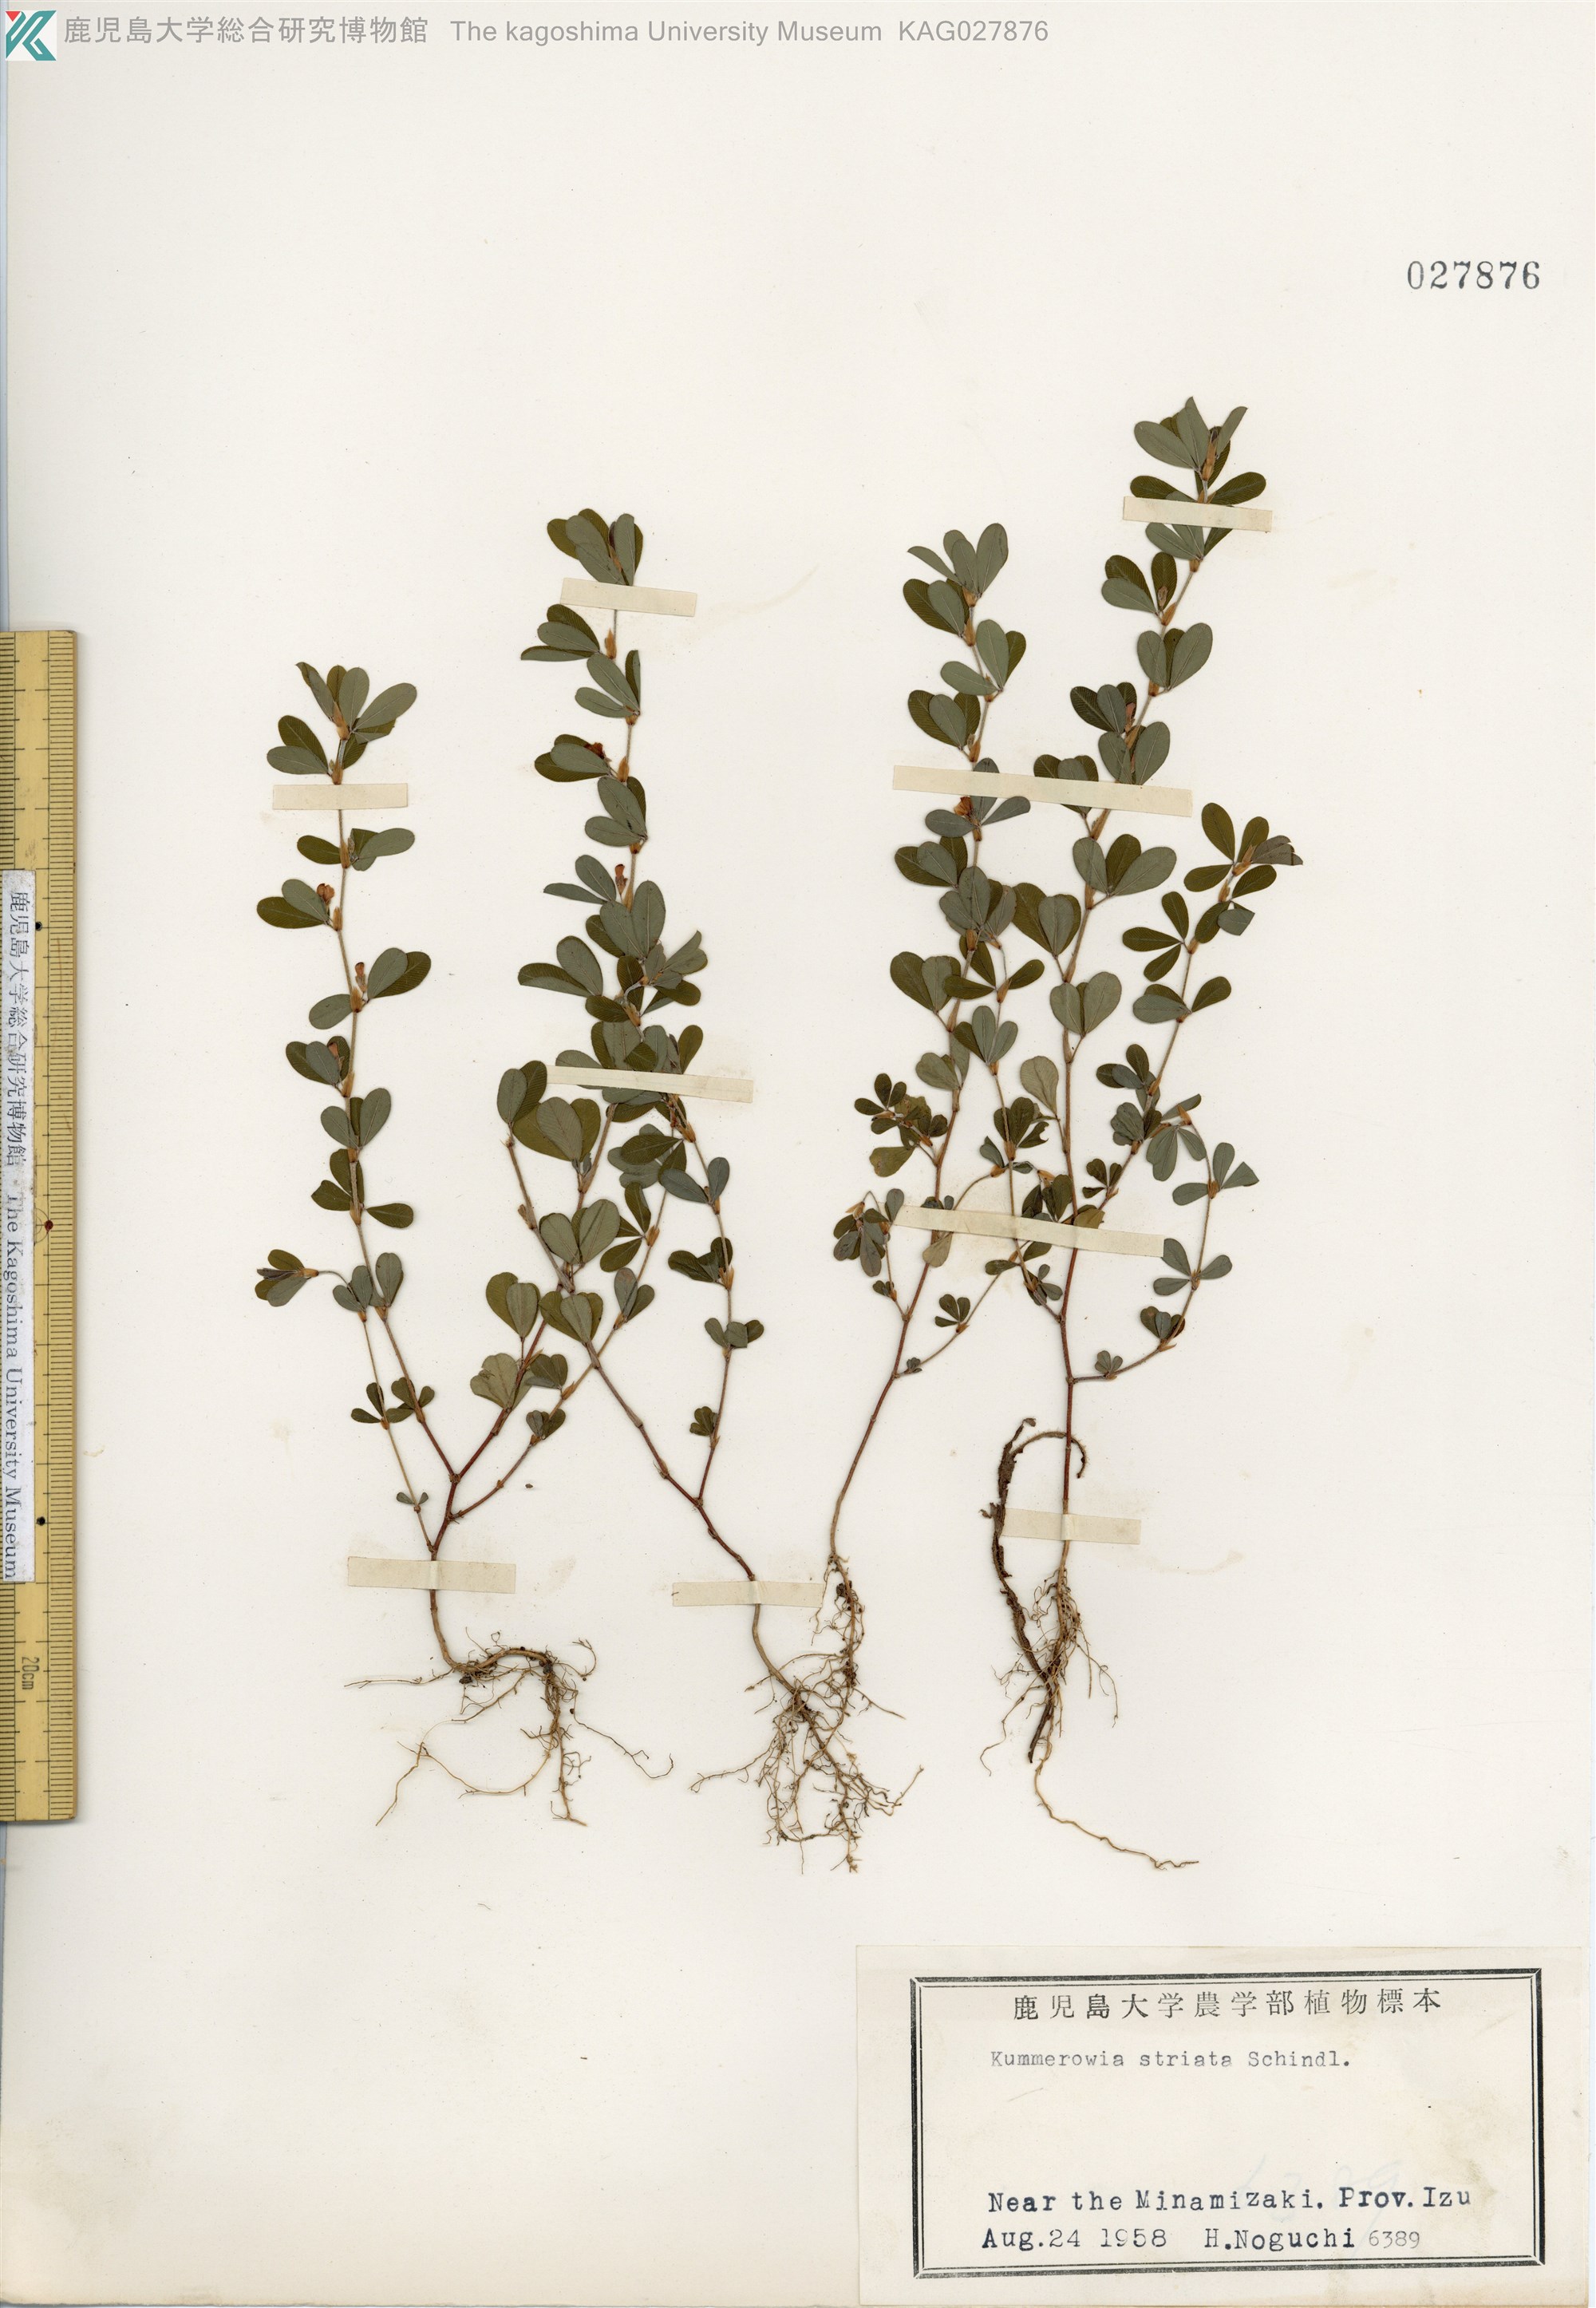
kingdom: Plantae
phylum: Tracheophyta
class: Magnoliopsida
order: Fabales
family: Fabaceae
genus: Kummerowia
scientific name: Kummerowia striata
